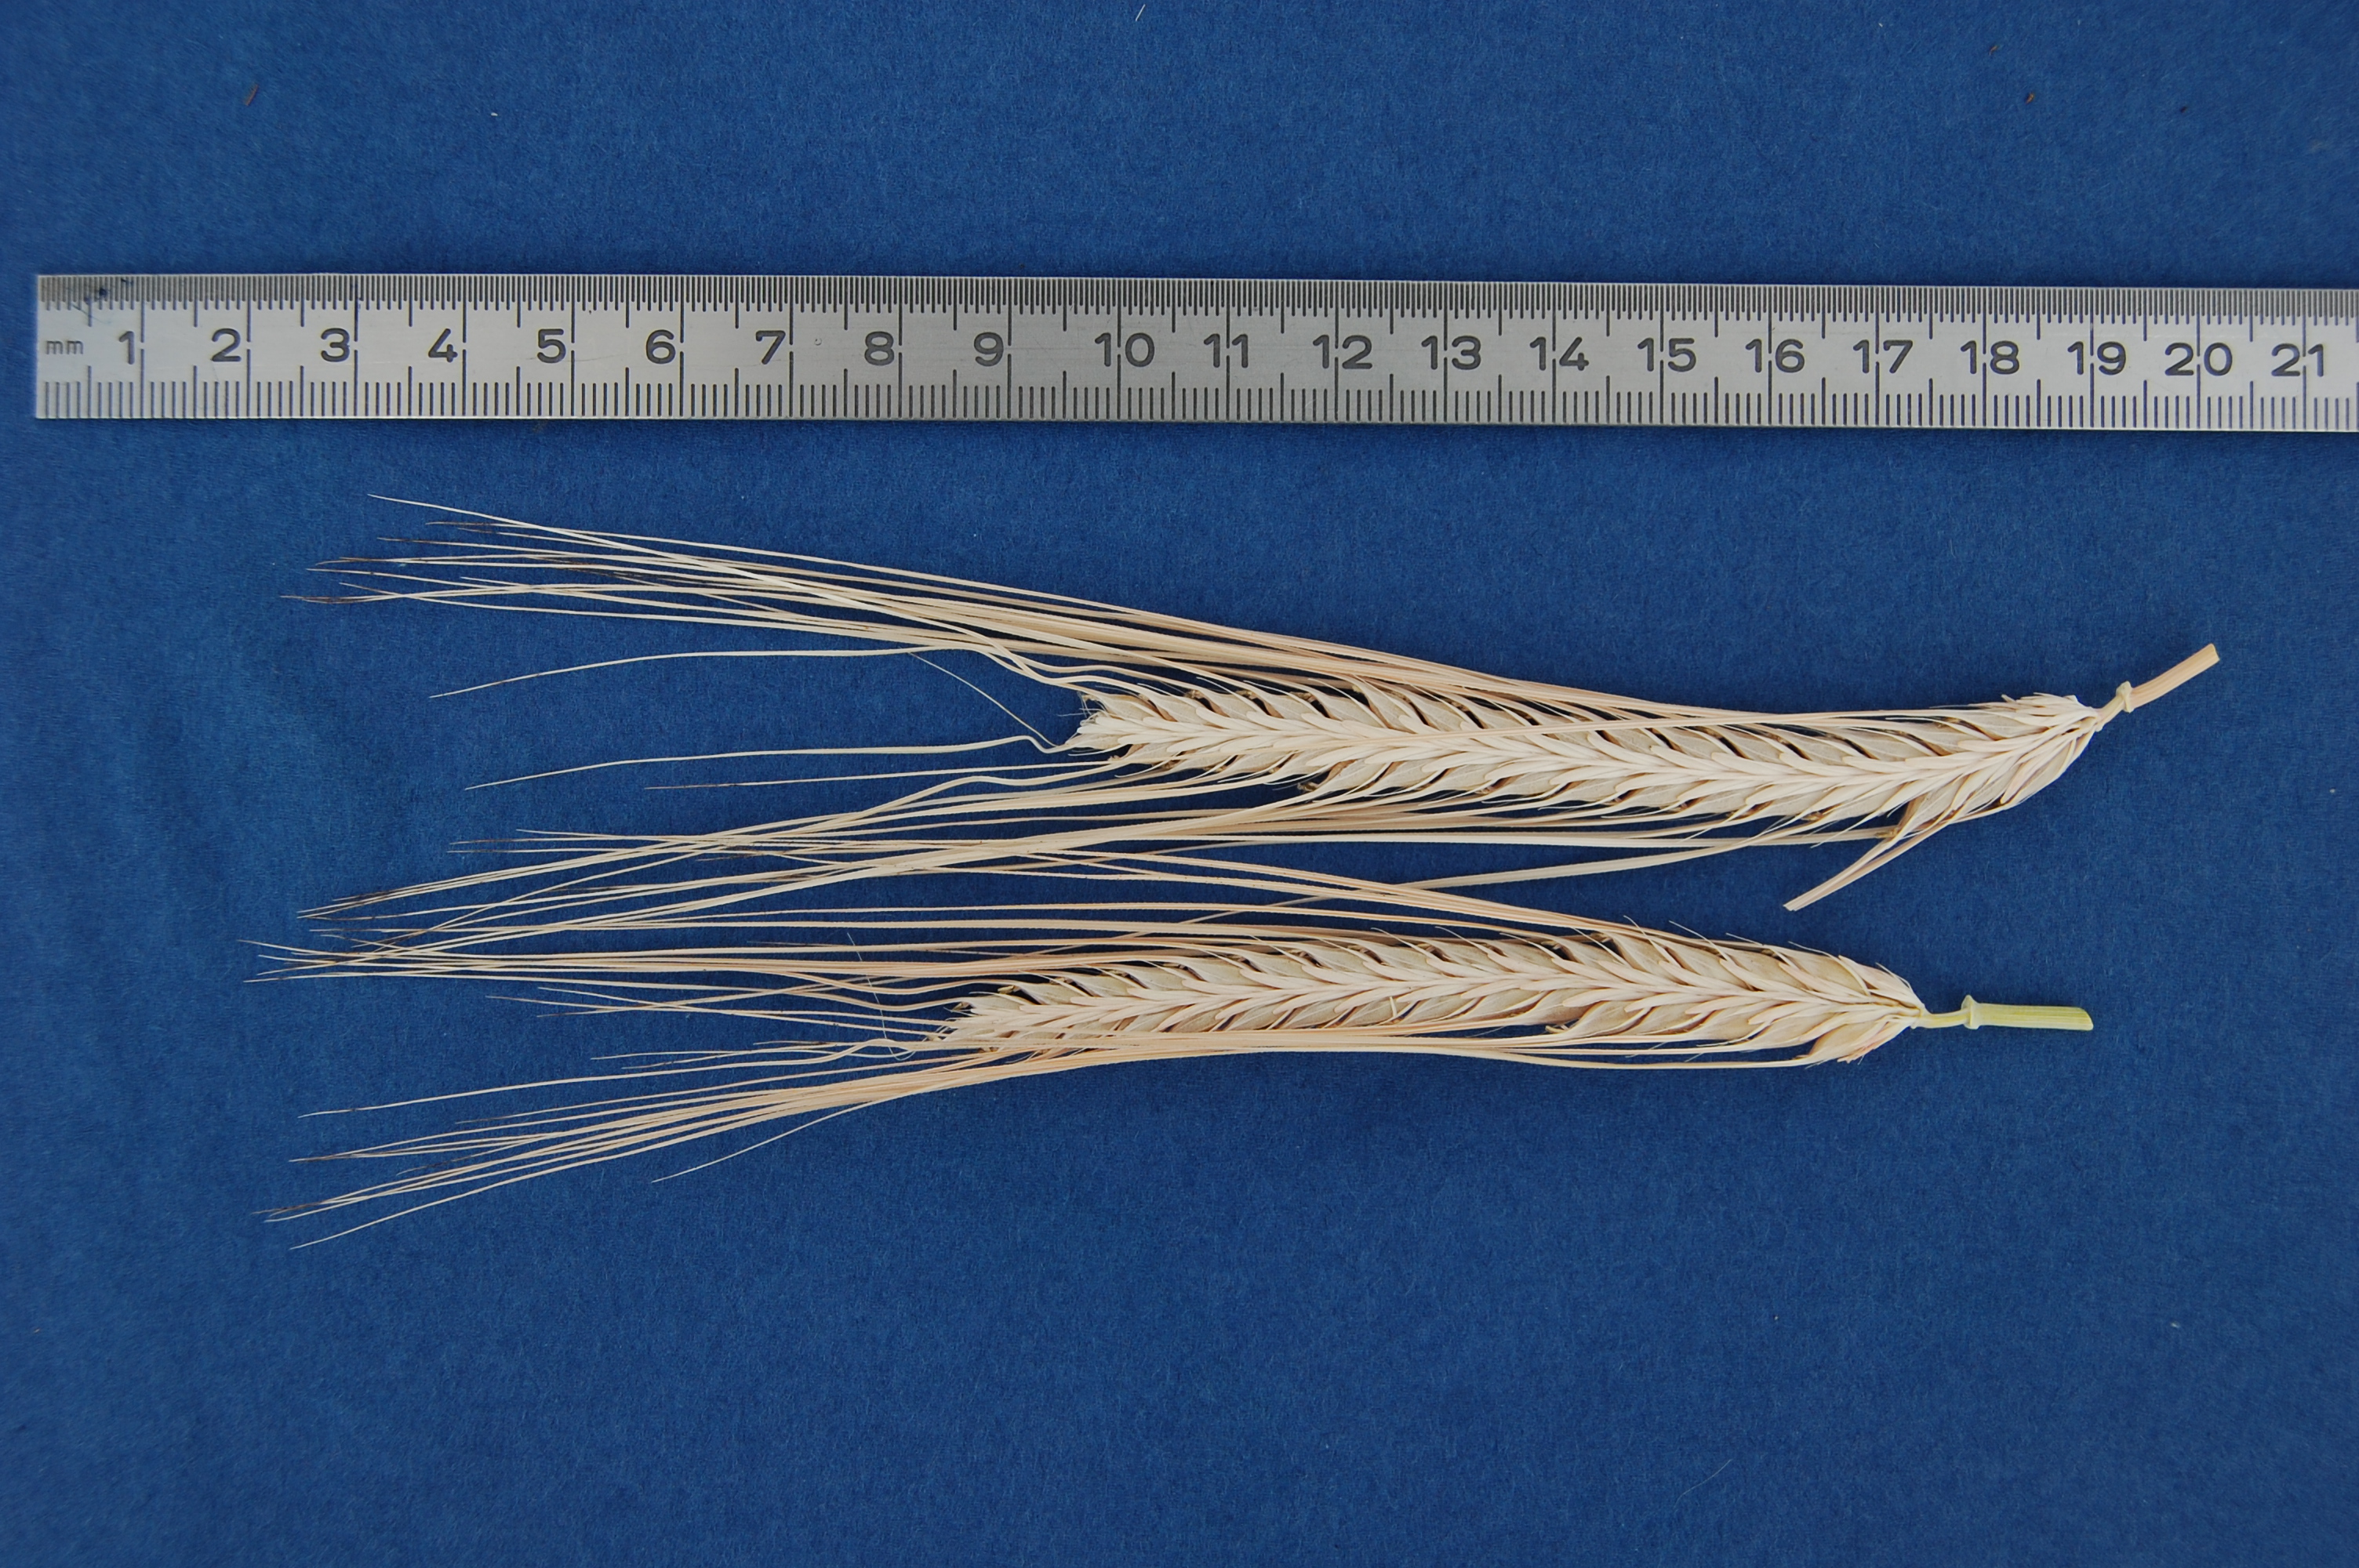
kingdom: Plantae
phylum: Tracheophyta
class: Liliopsida
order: Poales
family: Poaceae
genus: Hordeum
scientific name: Hordeum vulgare
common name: Common barley
